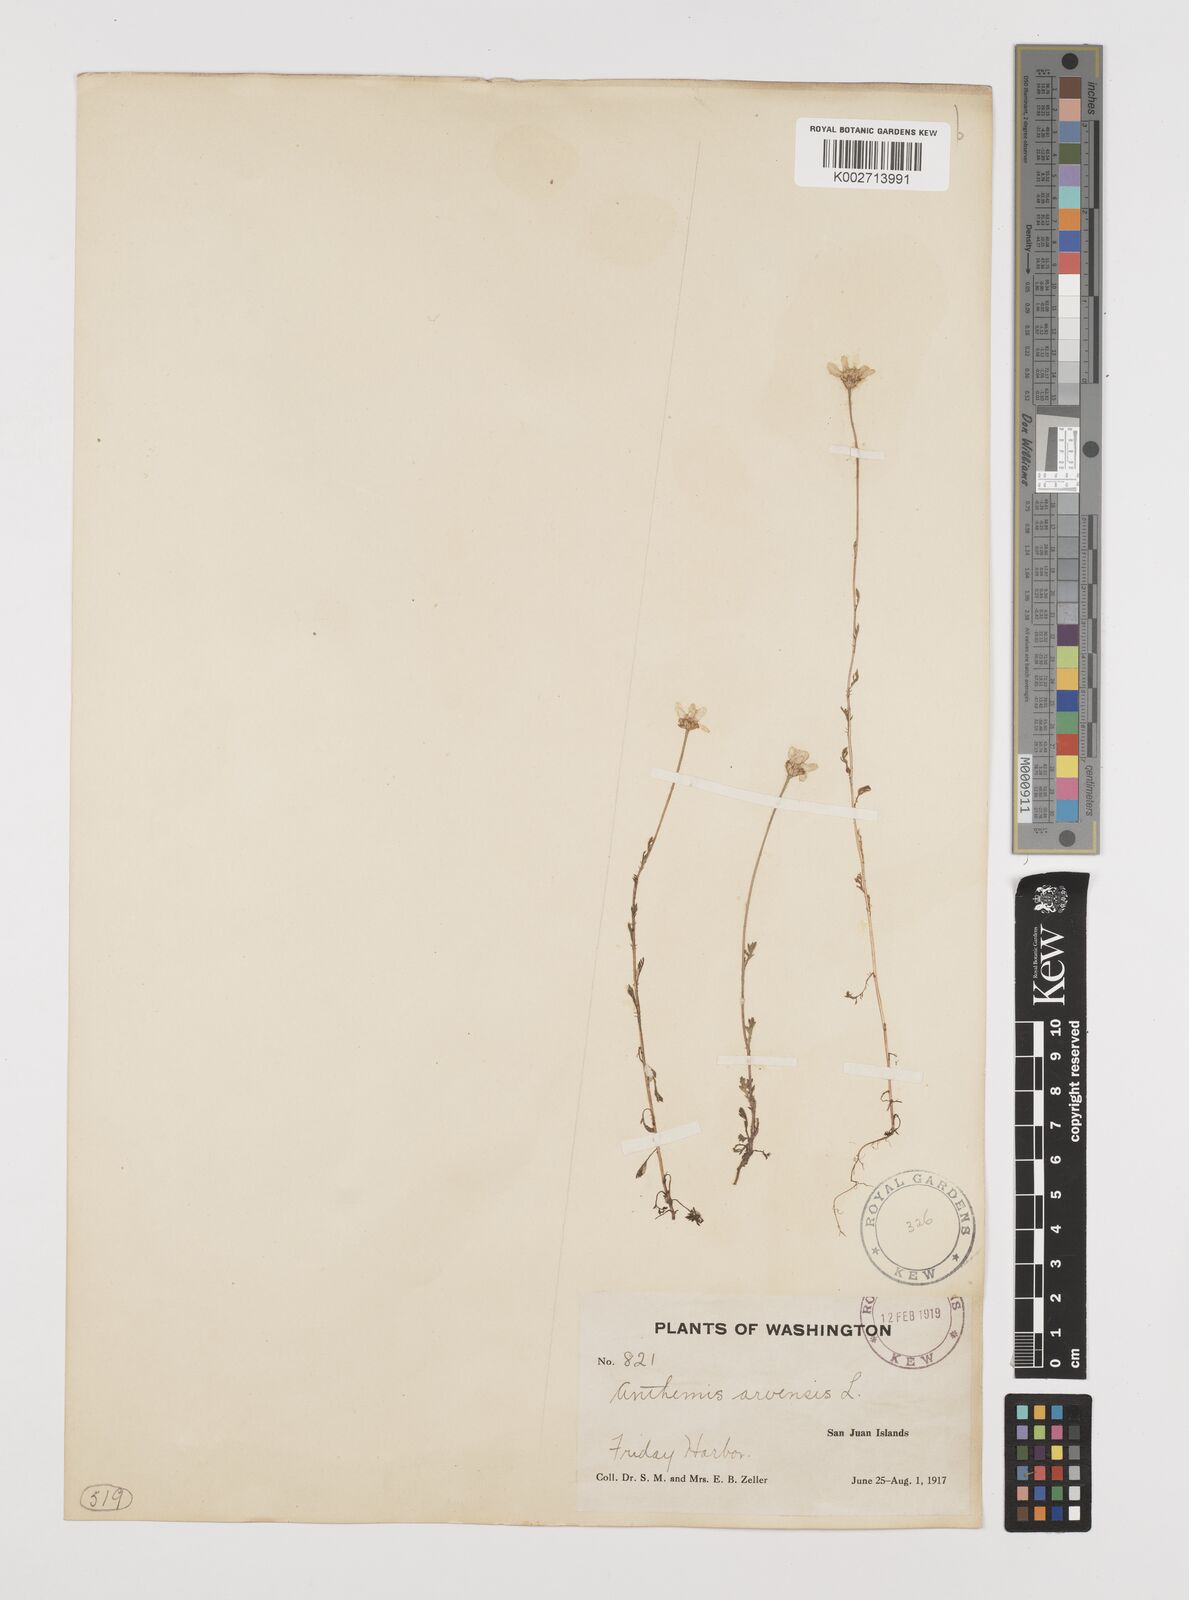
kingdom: Plantae
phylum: Tracheophyta
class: Magnoliopsida
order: Asterales
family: Asteraceae
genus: Anthemis
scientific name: Anthemis arvensis
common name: Corn chamomile
